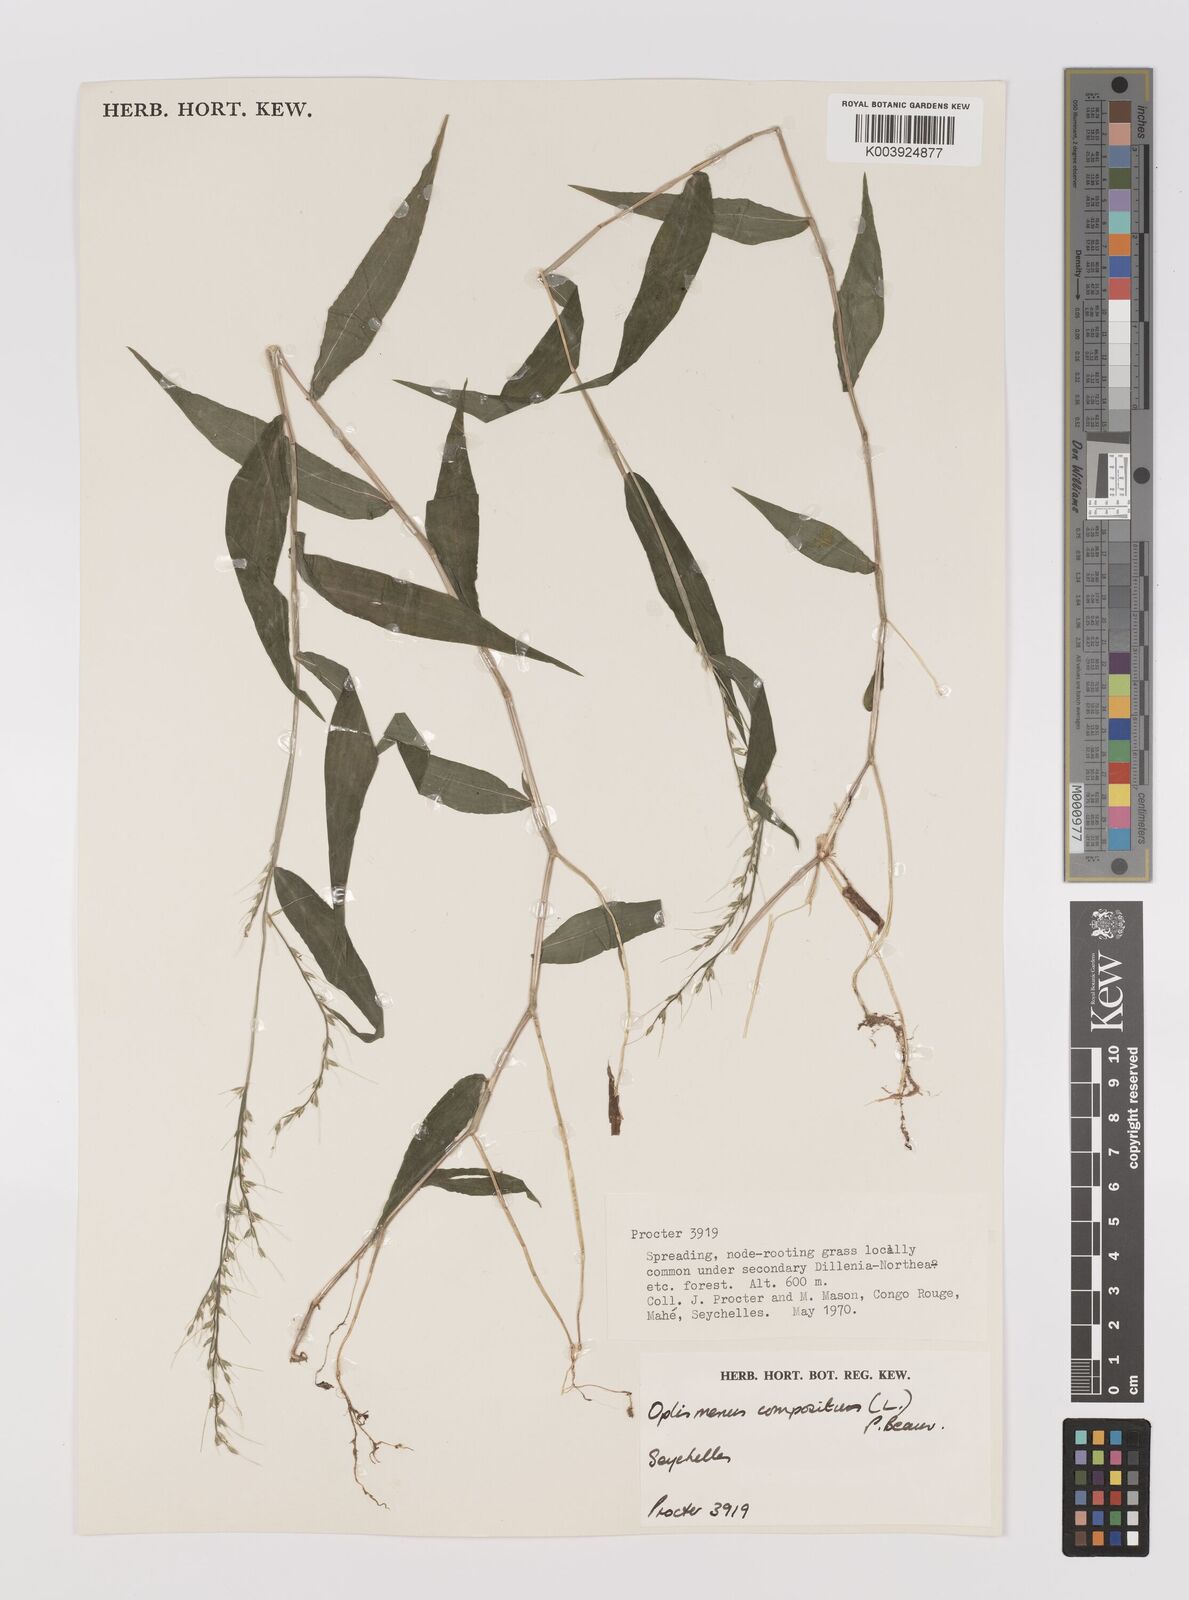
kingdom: Plantae
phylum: Tracheophyta
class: Liliopsida
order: Poales
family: Poaceae
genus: Oplismenus
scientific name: Oplismenus compositus
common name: Running mountain grass
